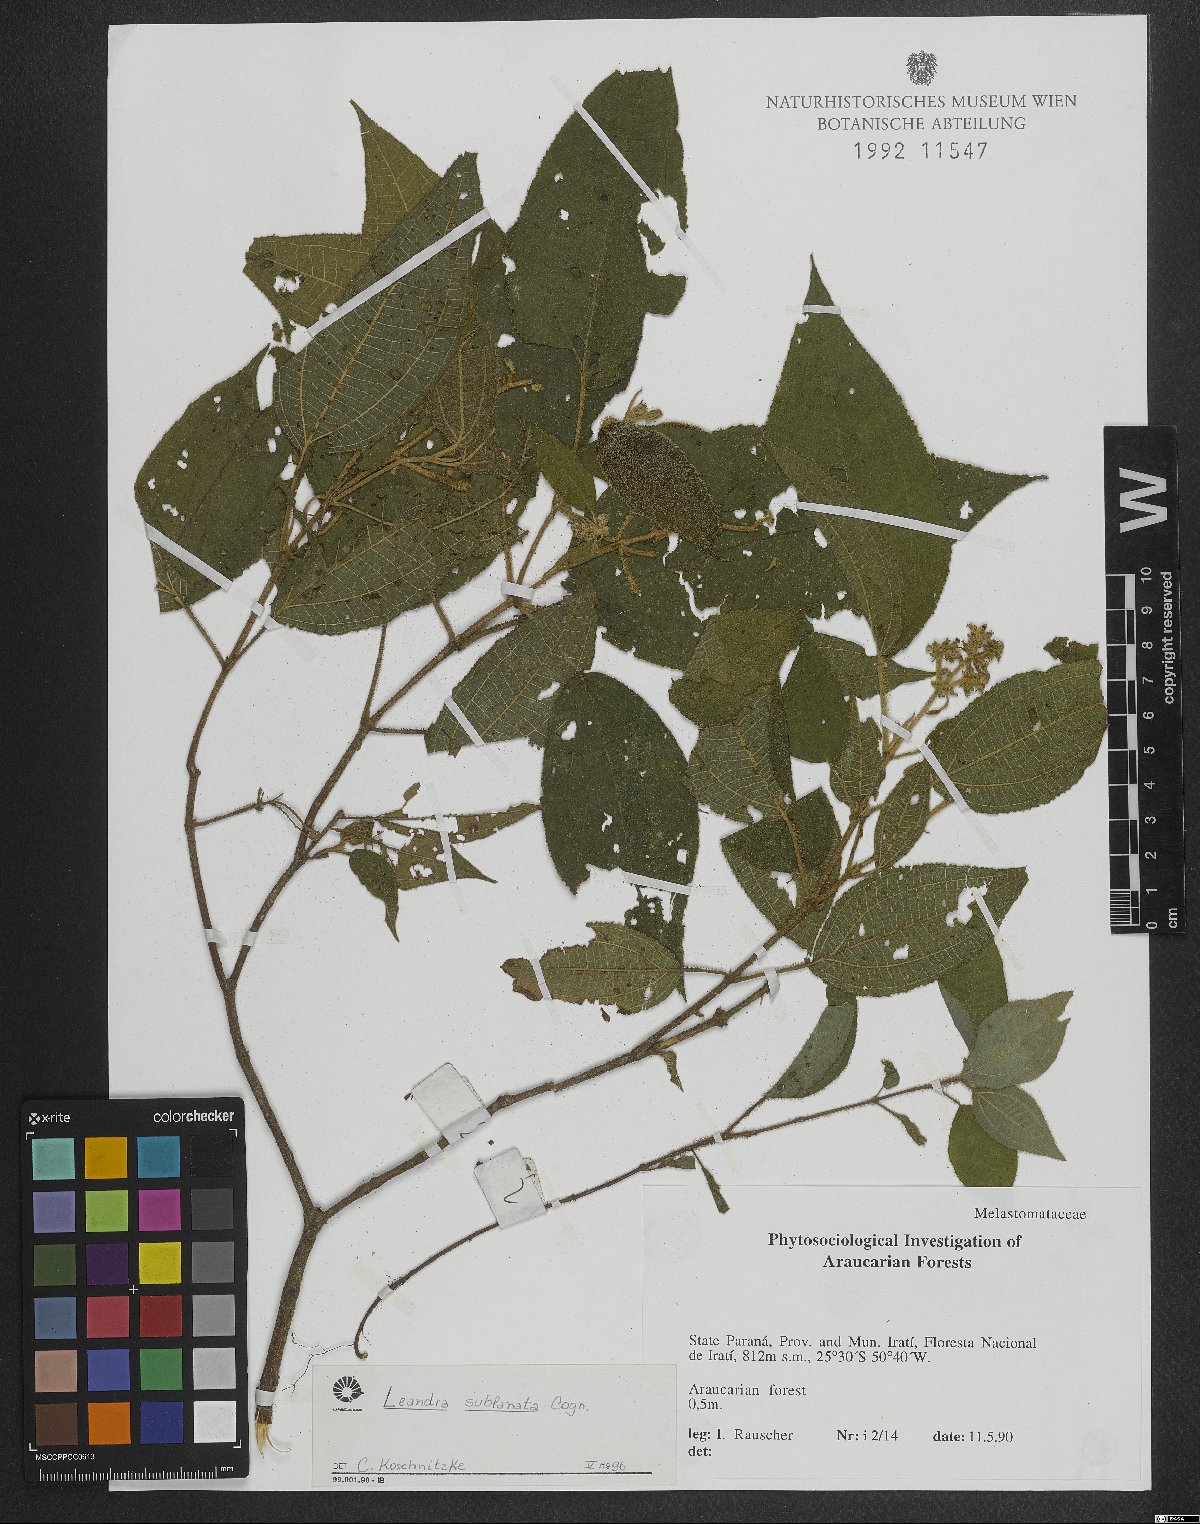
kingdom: Plantae
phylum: Tracheophyta
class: Magnoliopsida
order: Myrtales
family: Melastomataceae
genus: Miconia
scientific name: Miconia sublanata
